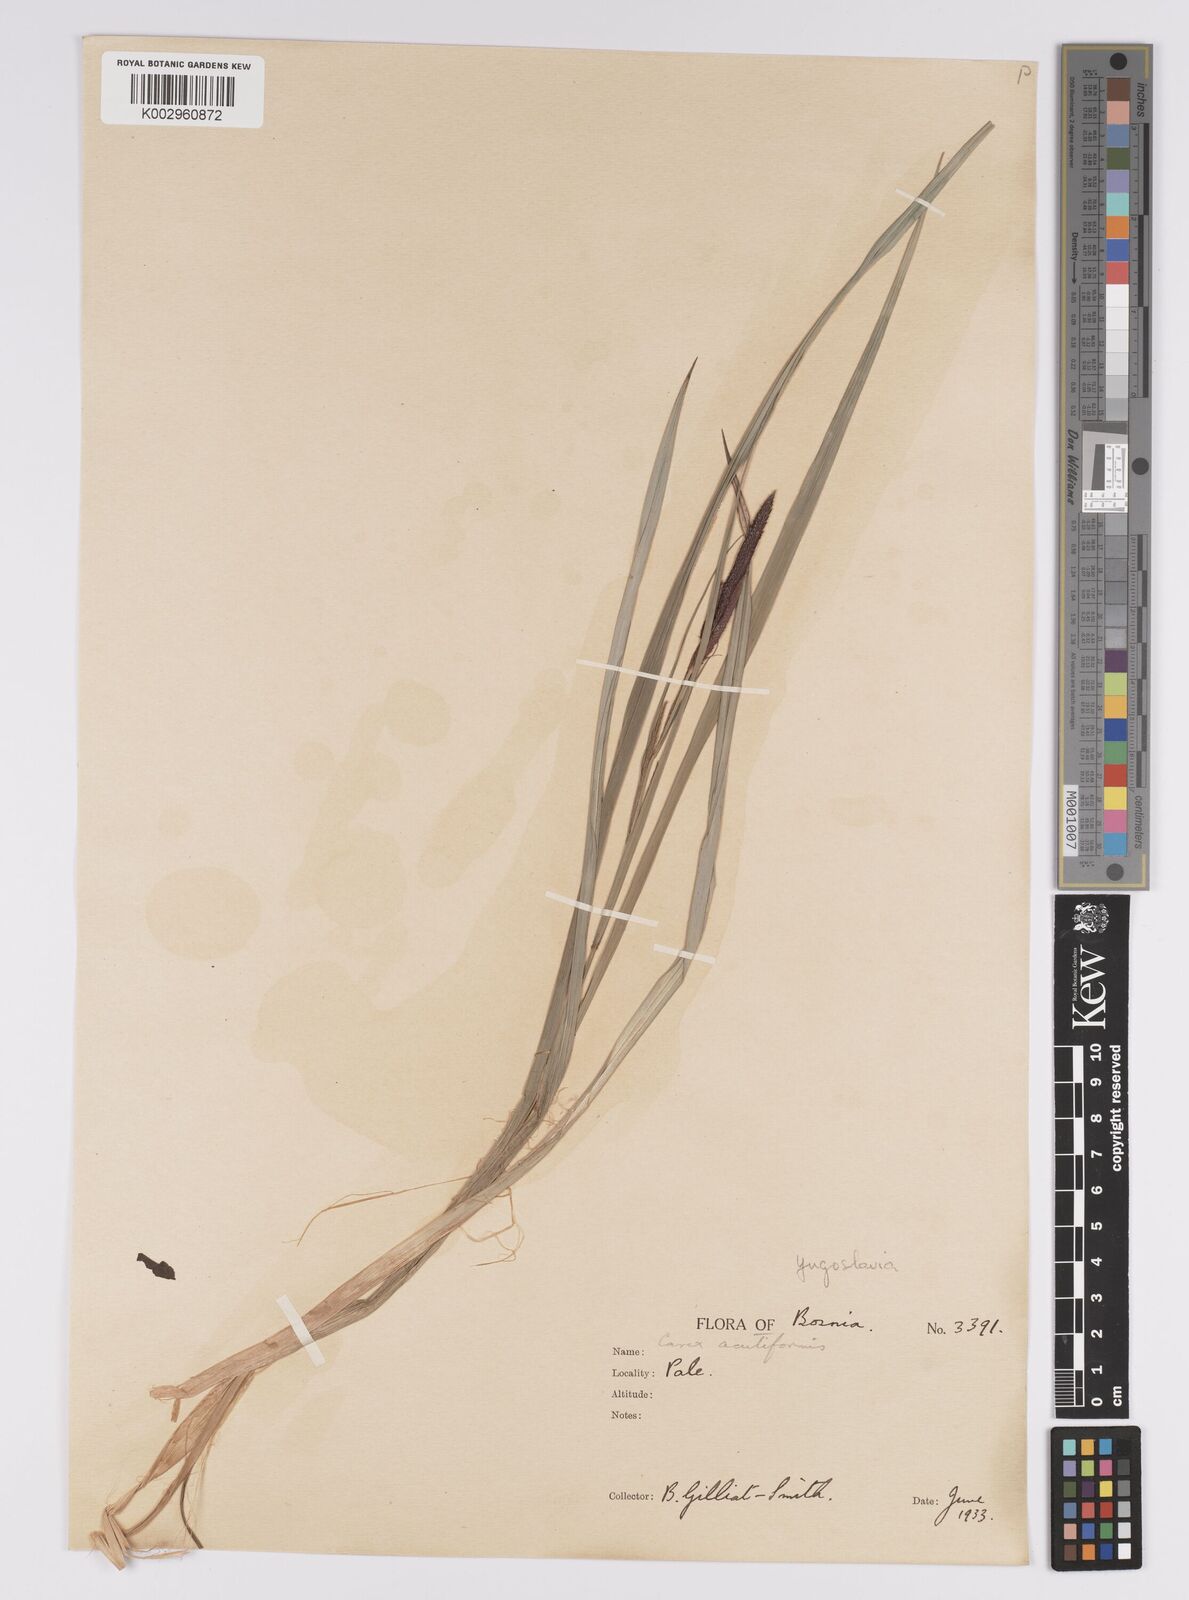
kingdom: Plantae
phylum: Tracheophyta
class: Liliopsida
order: Poales
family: Cyperaceae
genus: Carex
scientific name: Carex acutiformis
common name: Lesser pond-sedge
